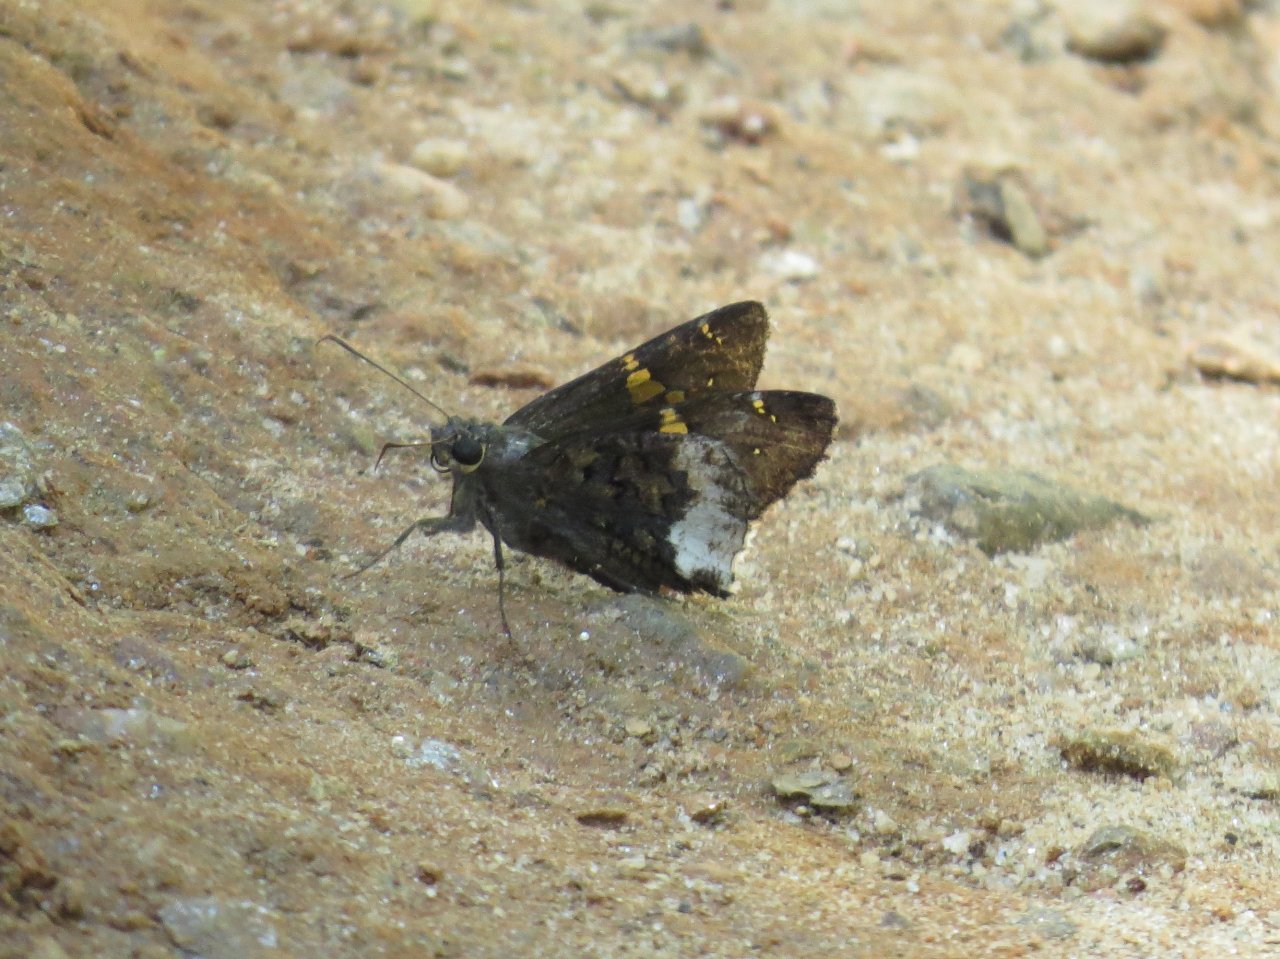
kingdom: Animalia
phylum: Arthropoda
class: Insecta
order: Lepidoptera
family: Hesperiidae
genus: Achalarus
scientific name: Achalarus lyciades
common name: Hoary Edge
